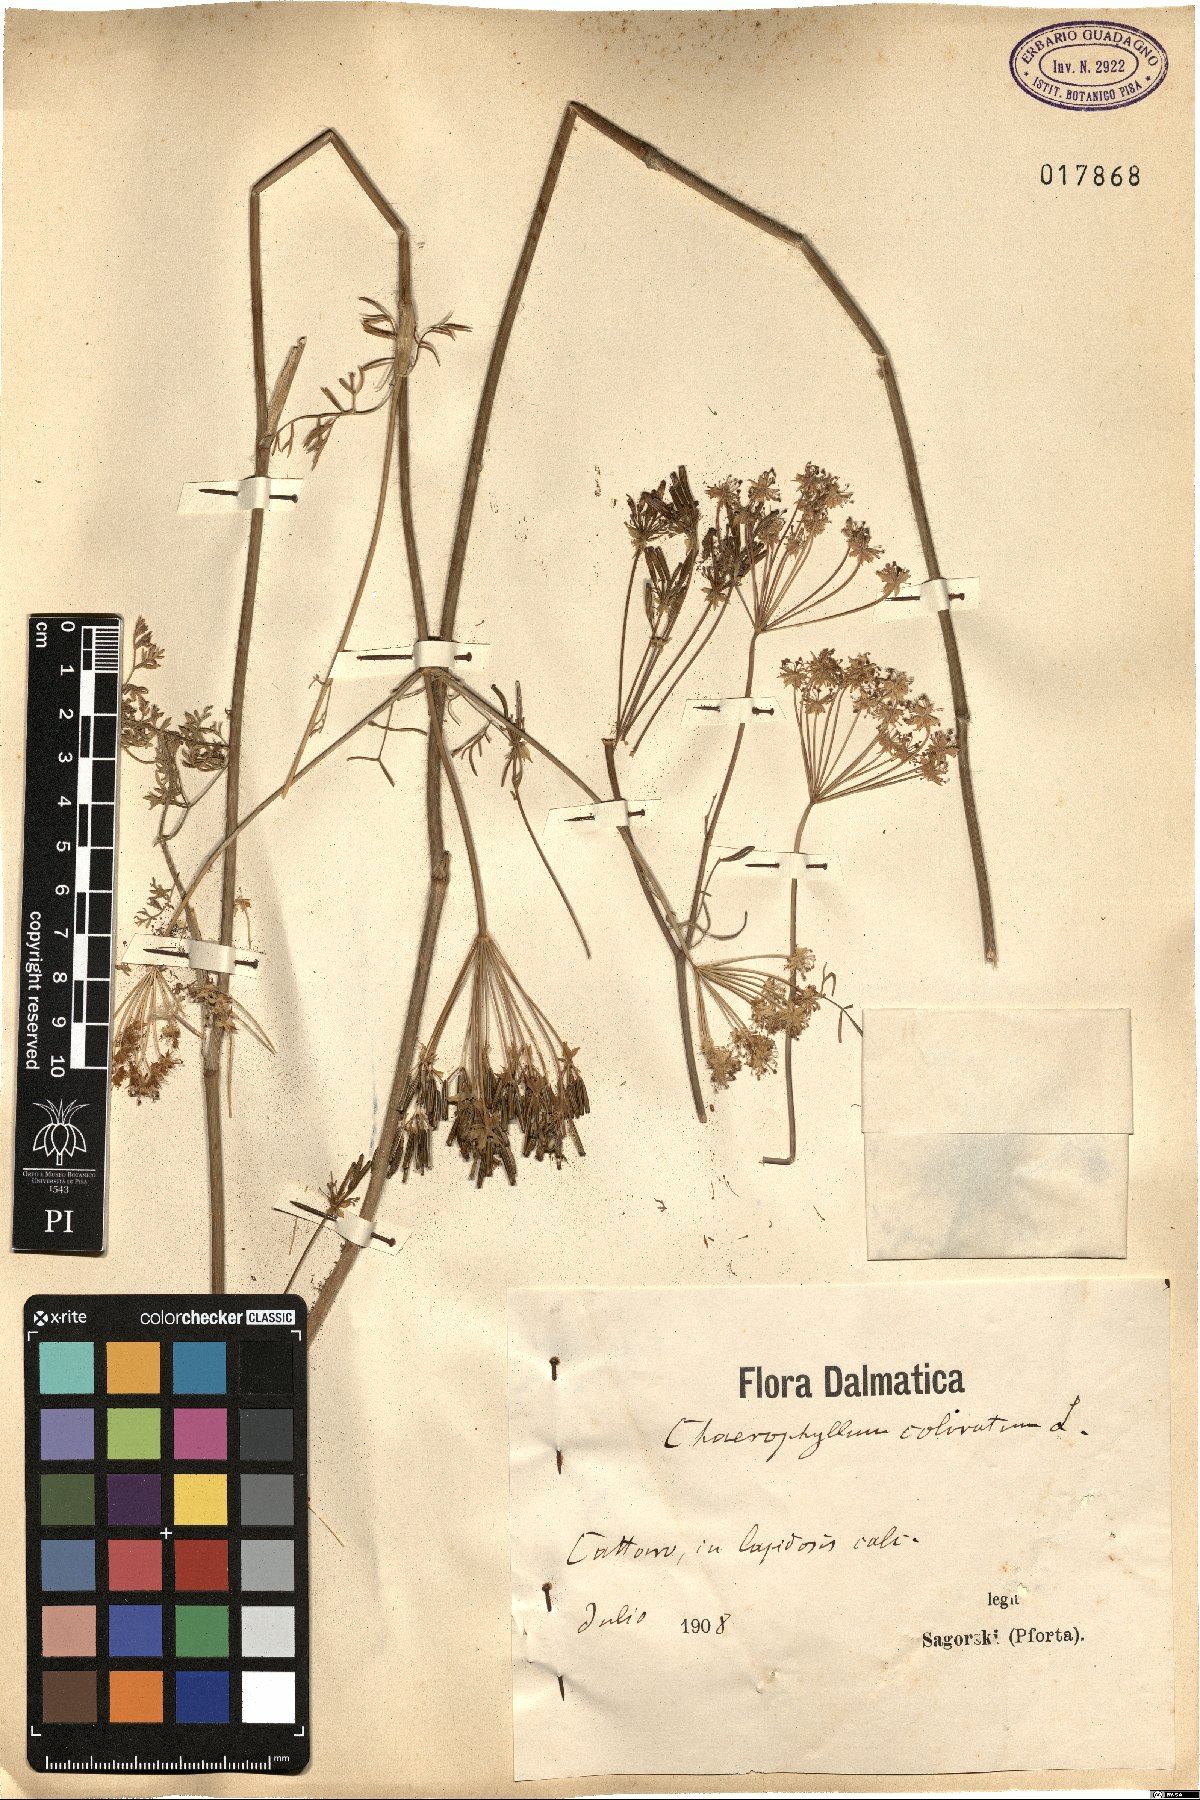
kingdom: Plantae
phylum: Tracheophyta
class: Magnoliopsida
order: Apiales
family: Apiaceae
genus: Chaerophyllum
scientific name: Chaerophyllum coloratum
